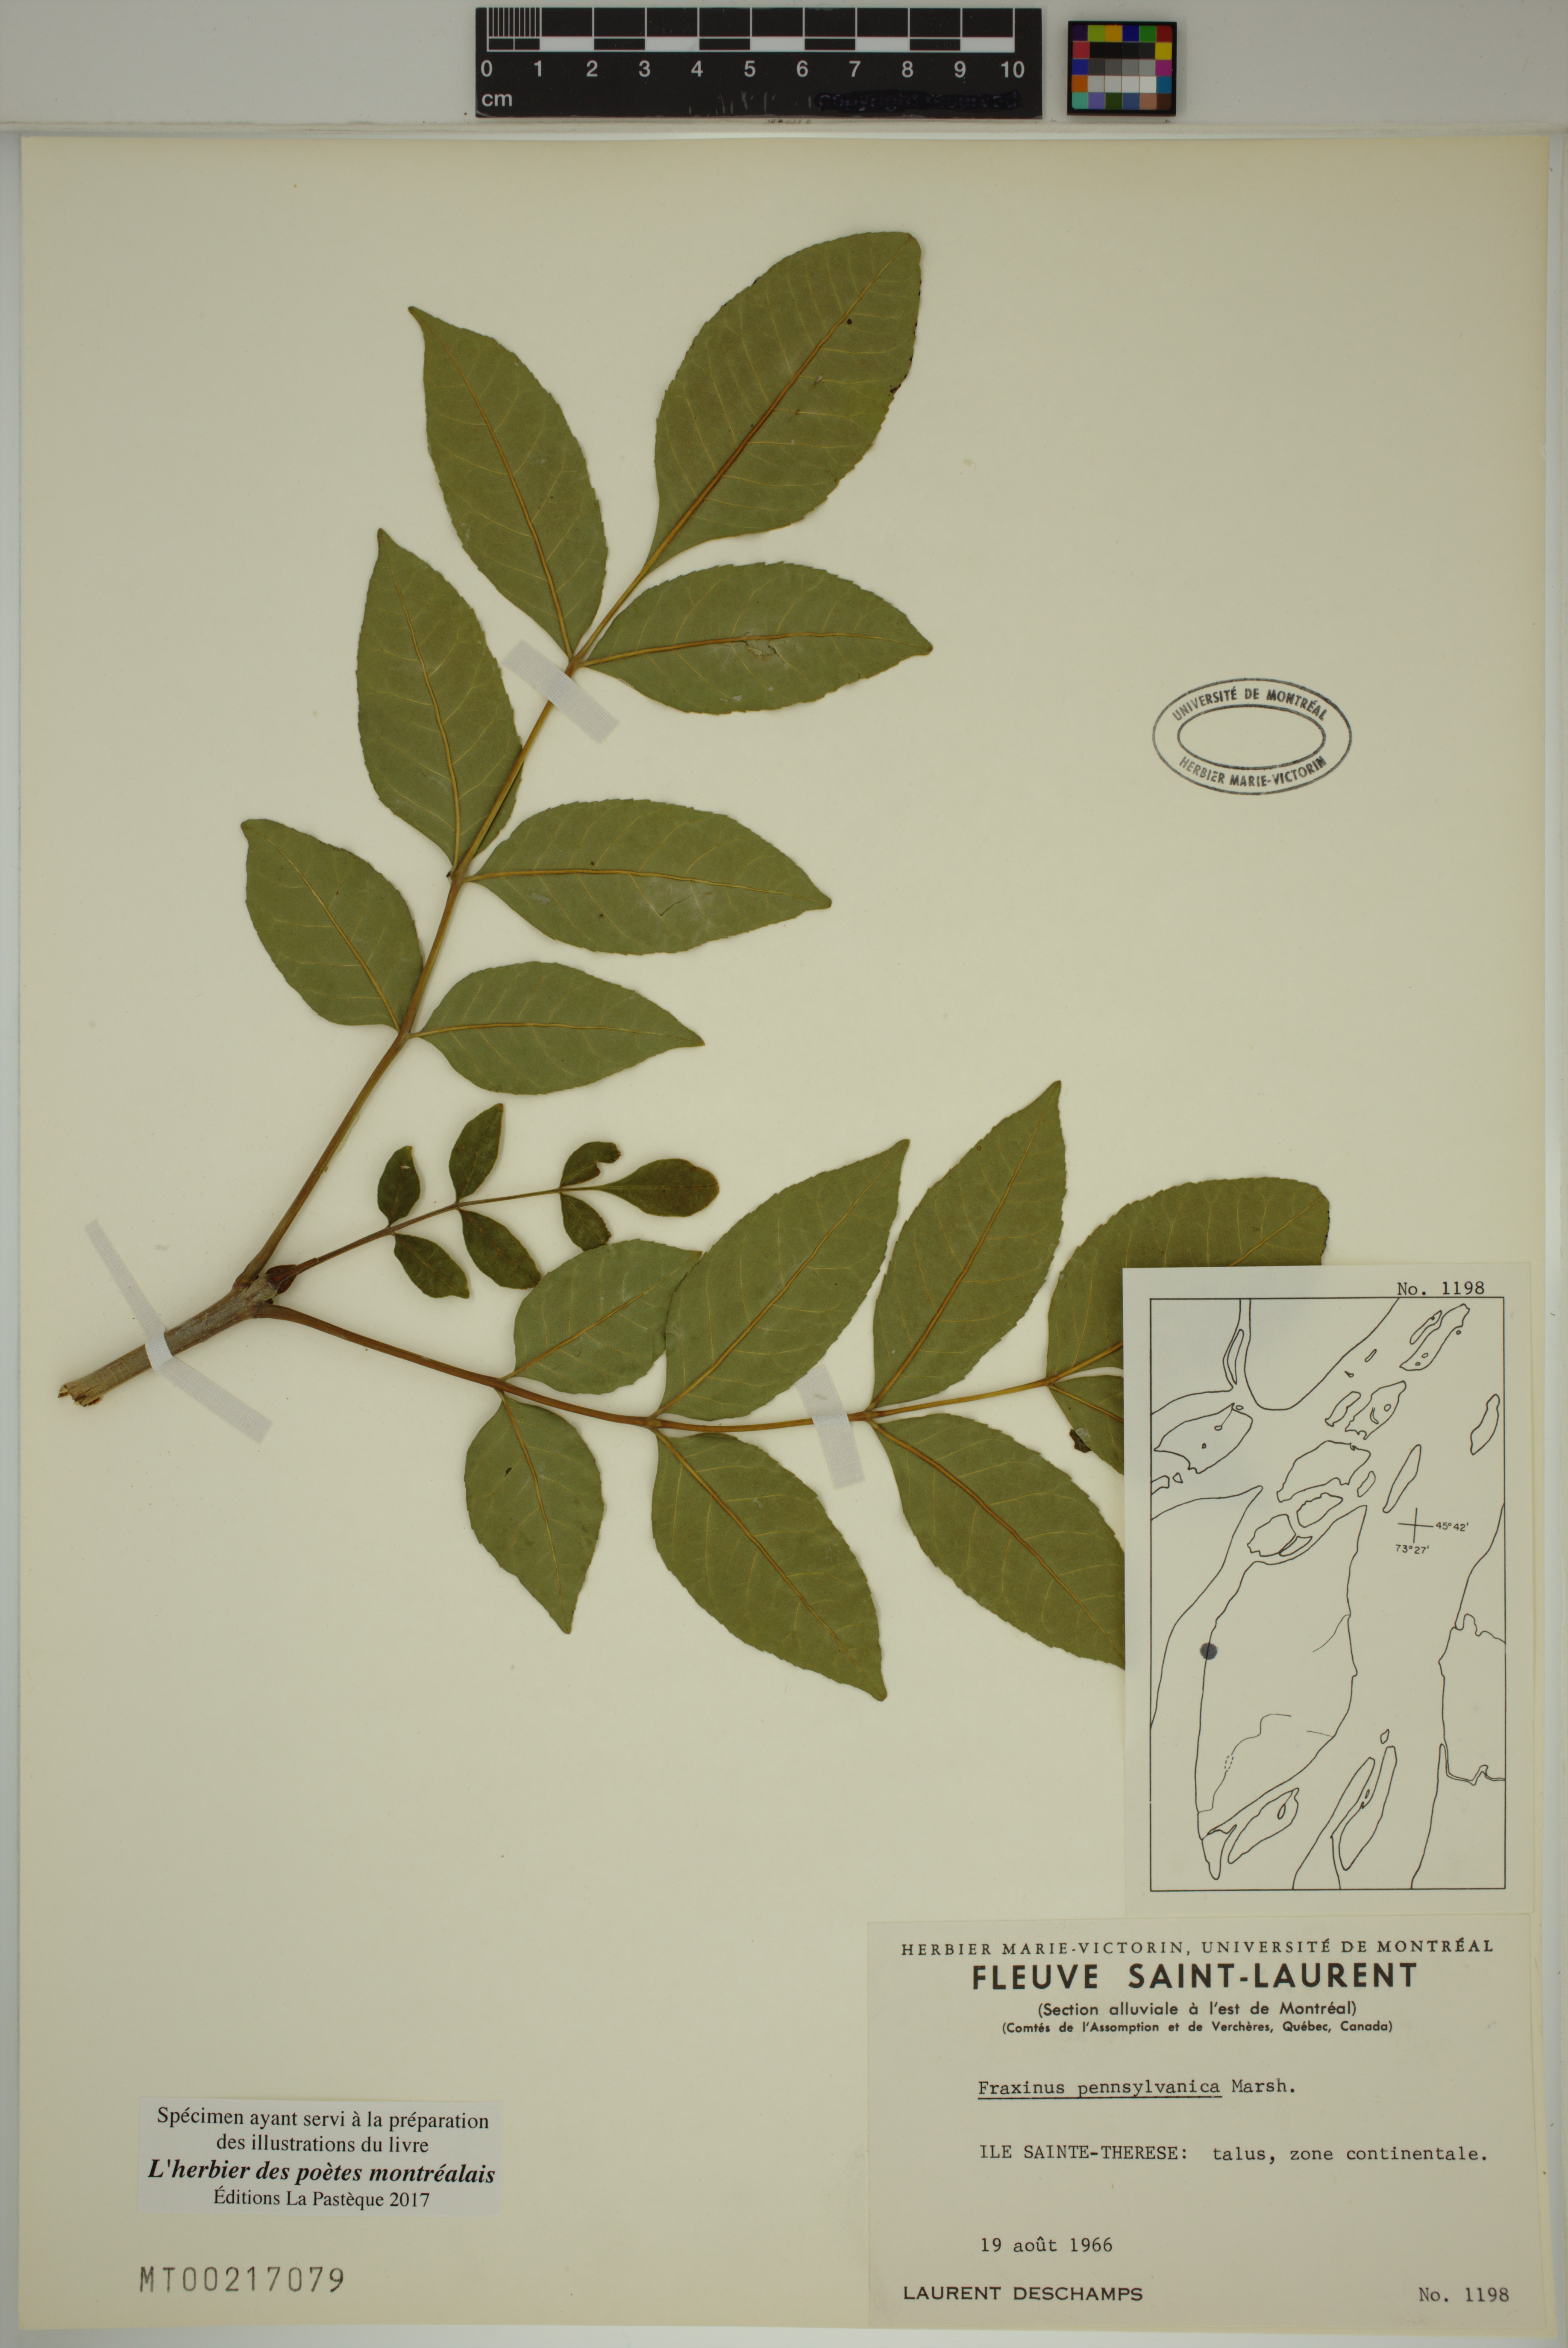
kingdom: Plantae
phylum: Tracheophyta
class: Magnoliopsida
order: Lamiales
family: Oleaceae
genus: Fraxinus
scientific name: Fraxinus pennsylvanica
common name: Green ash
